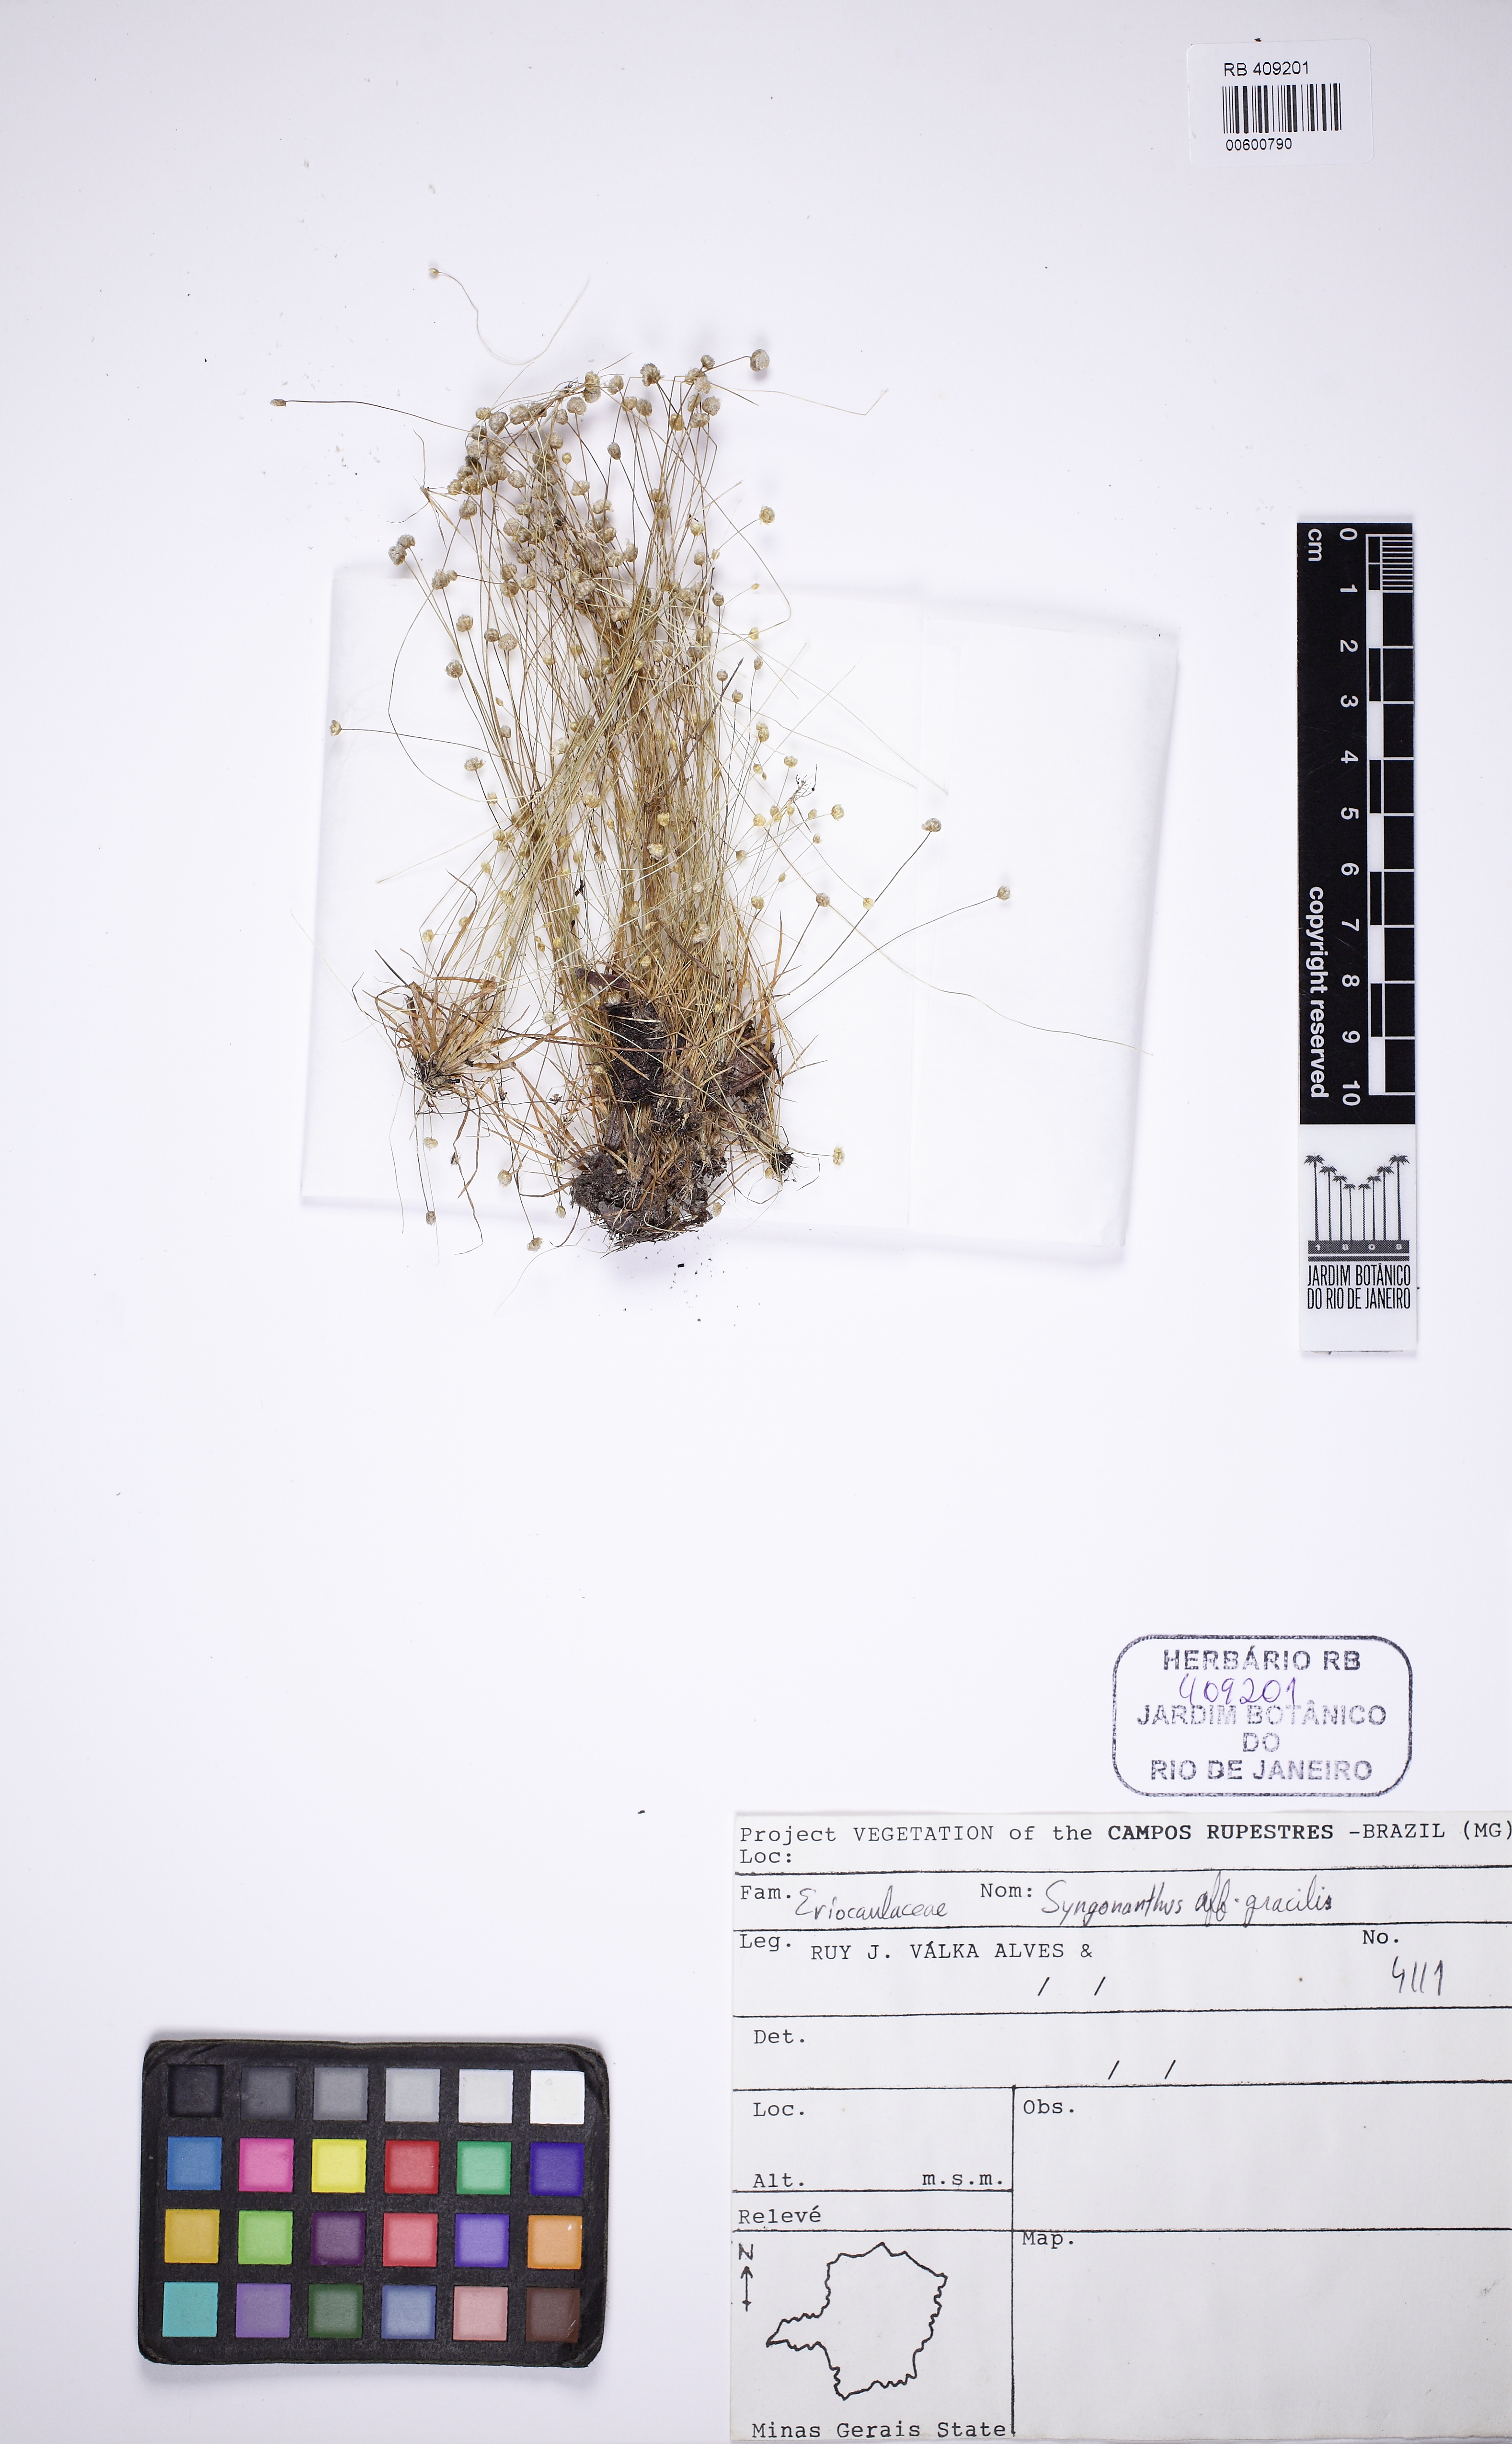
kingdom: Plantae
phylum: Tracheophyta
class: Liliopsida
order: Poales
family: Eriocaulaceae
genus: Syngonanthus
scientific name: Syngonanthus gracilis
